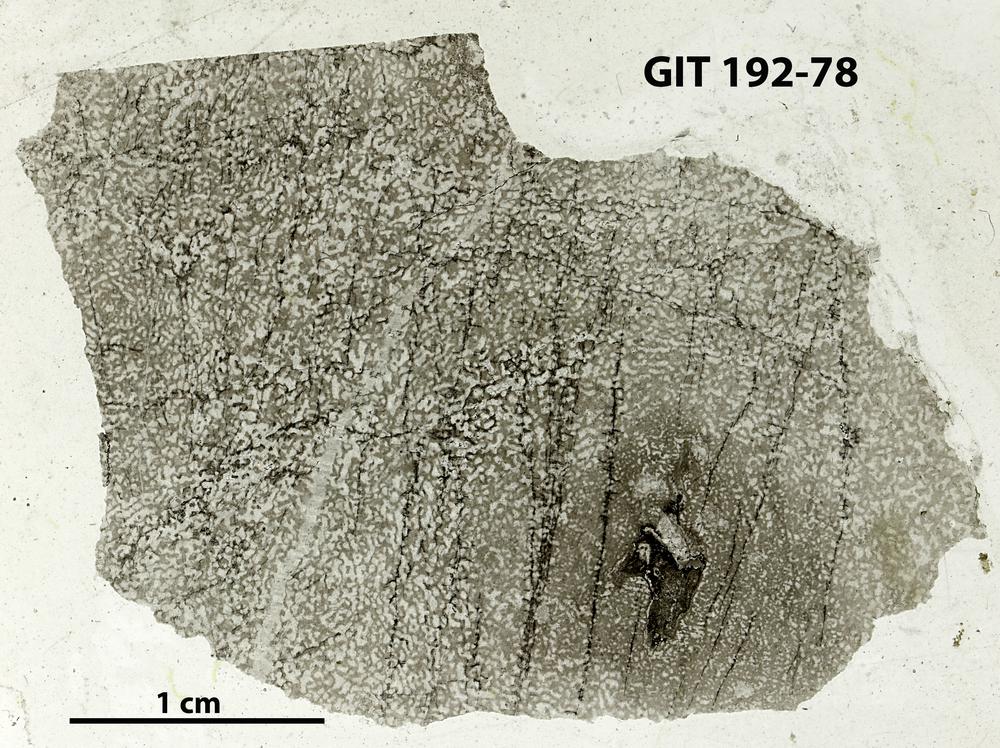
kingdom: Animalia
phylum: Porifera
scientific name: Porifera
